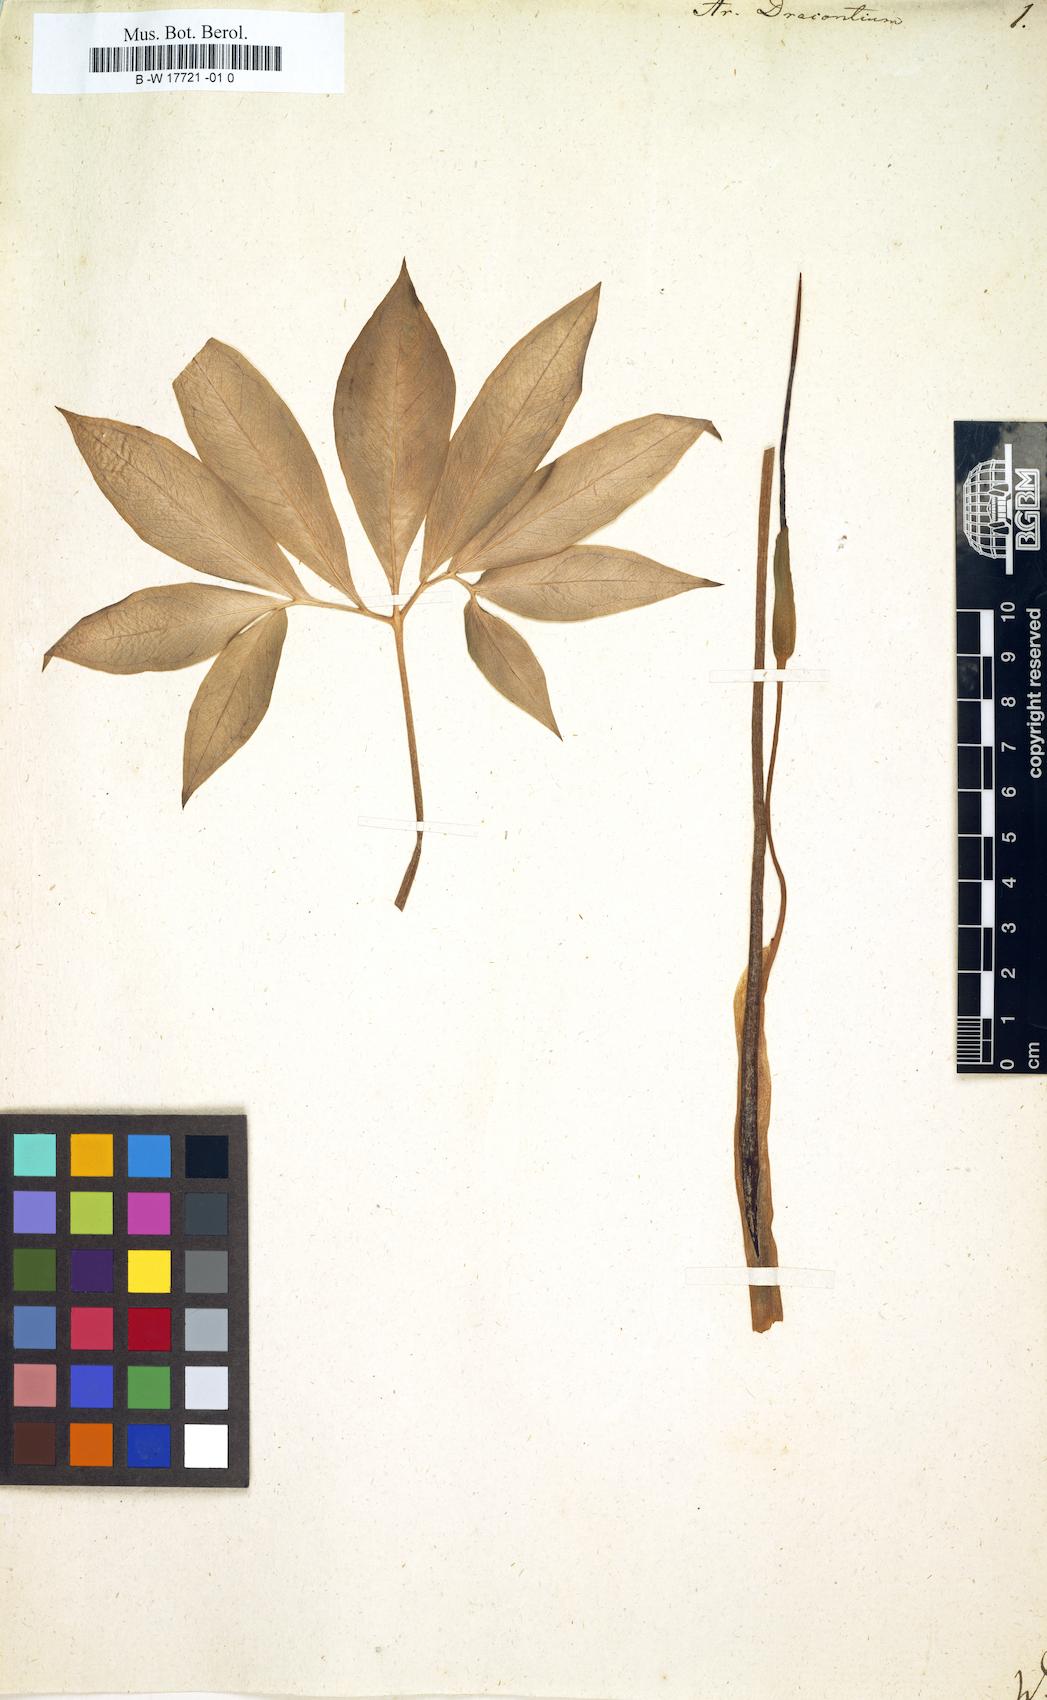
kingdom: Plantae
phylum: Tracheophyta
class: Liliopsida
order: Alismatales
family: Araceae
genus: Arum
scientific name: Arum dracontium
